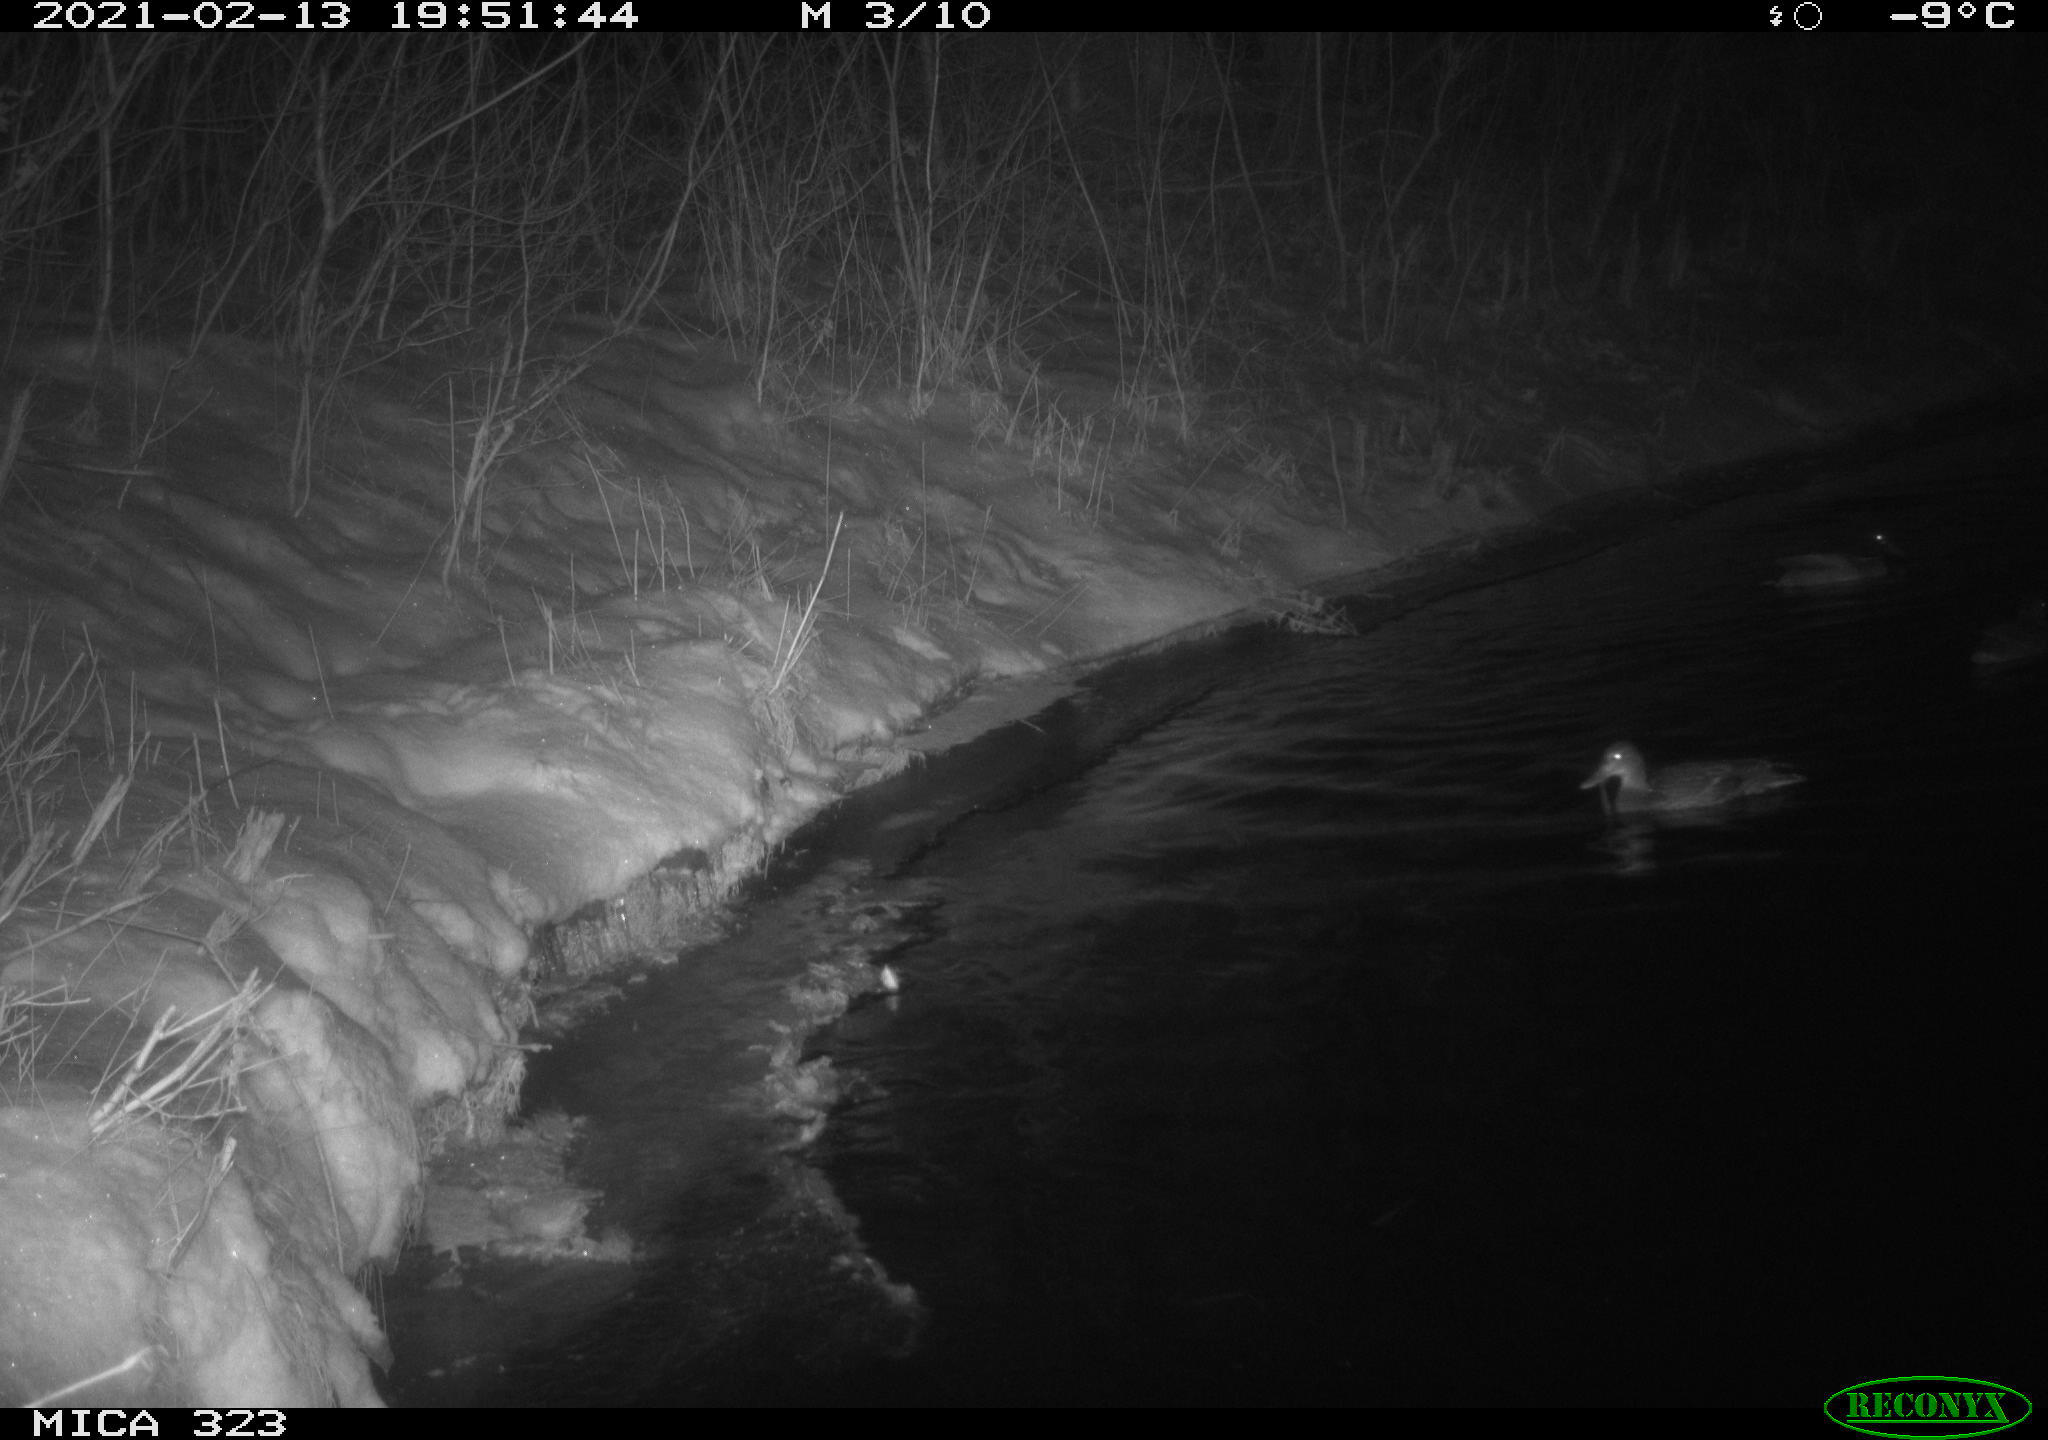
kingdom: Animalia
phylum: Chordata
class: Aves
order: Anseriformes
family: Anatidae
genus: Anas
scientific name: Anas platyrhynchos
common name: Mallard
